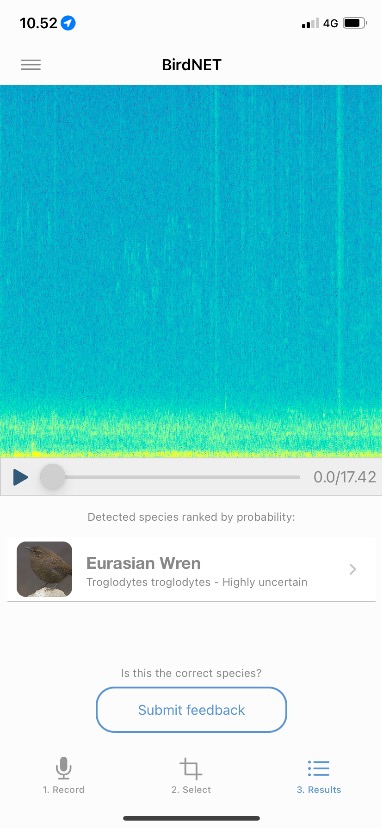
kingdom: Animalia
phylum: Chordata
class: Aves
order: Passeriformes
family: Troglodytidae
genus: Troglodytes
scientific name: Troglodytes troglodytes
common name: Gærdesmutte
